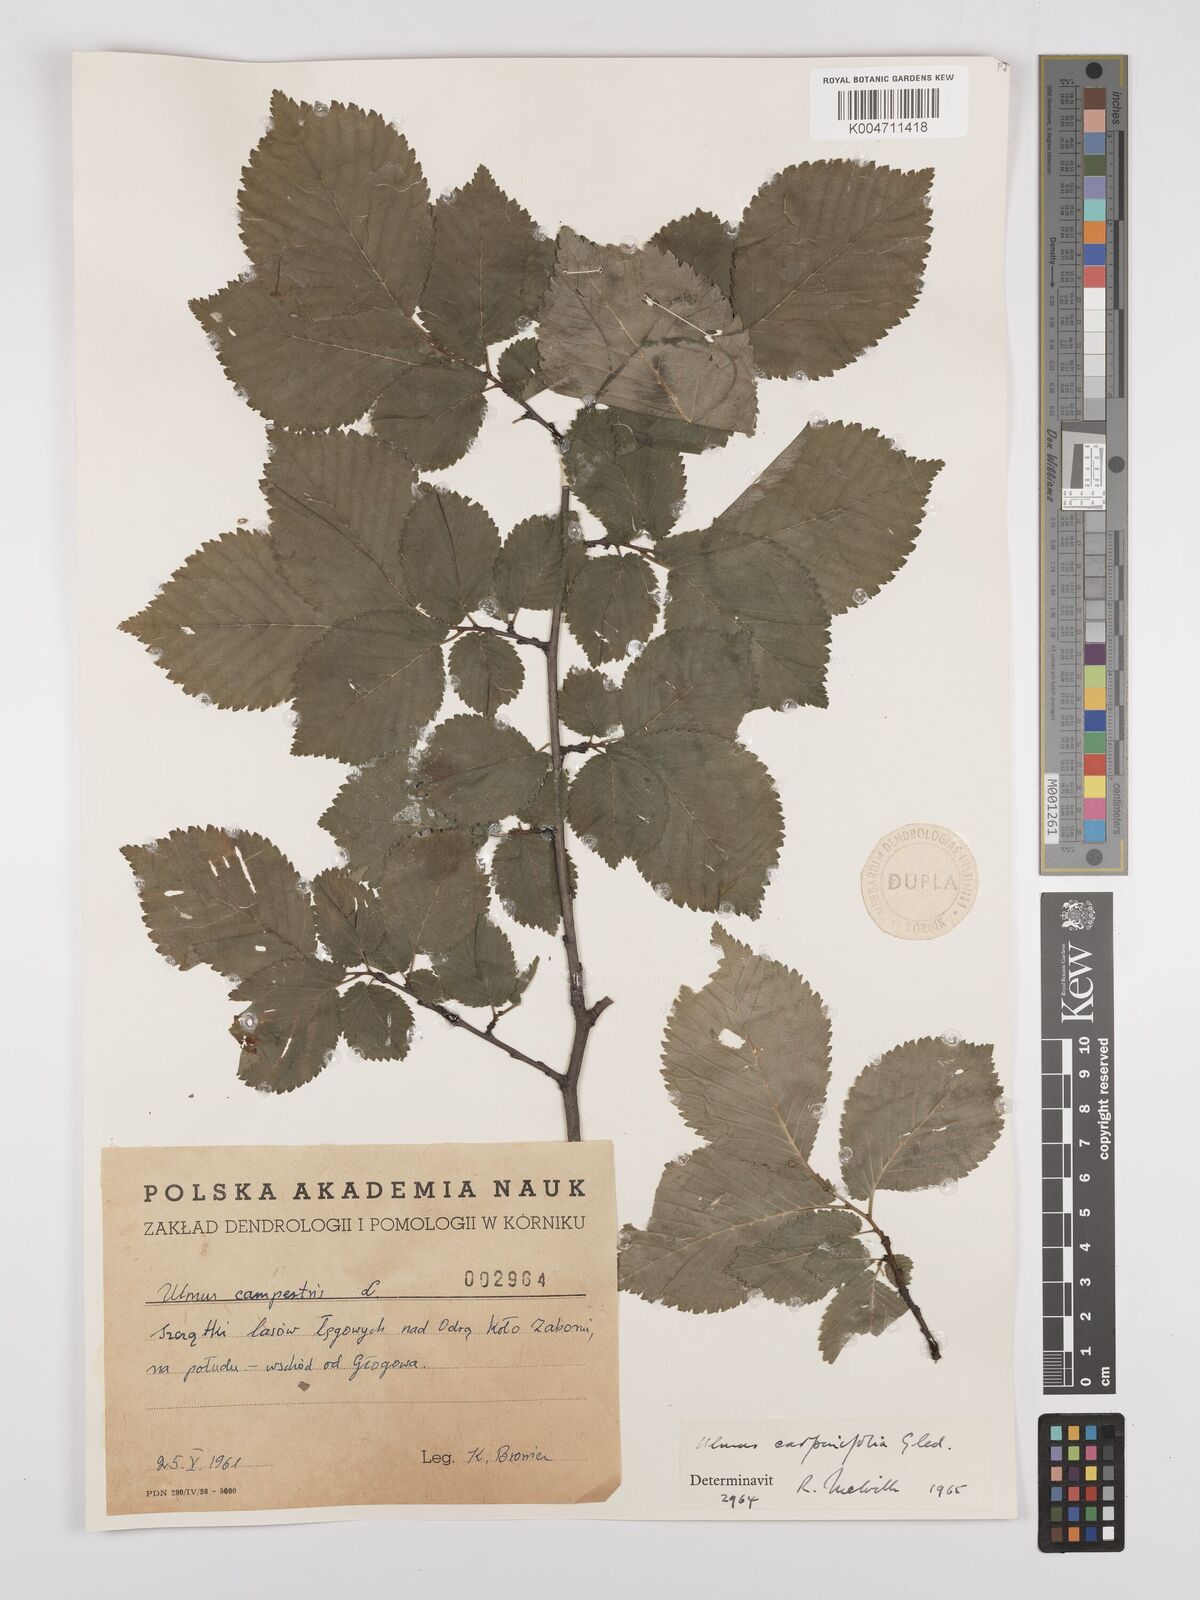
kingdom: Plantae
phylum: Tracheophyta
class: Magnoliopsida
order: Rosales
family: Ulmaceae
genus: Ulmus
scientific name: Ulmus minor
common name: Small-leaved elm
